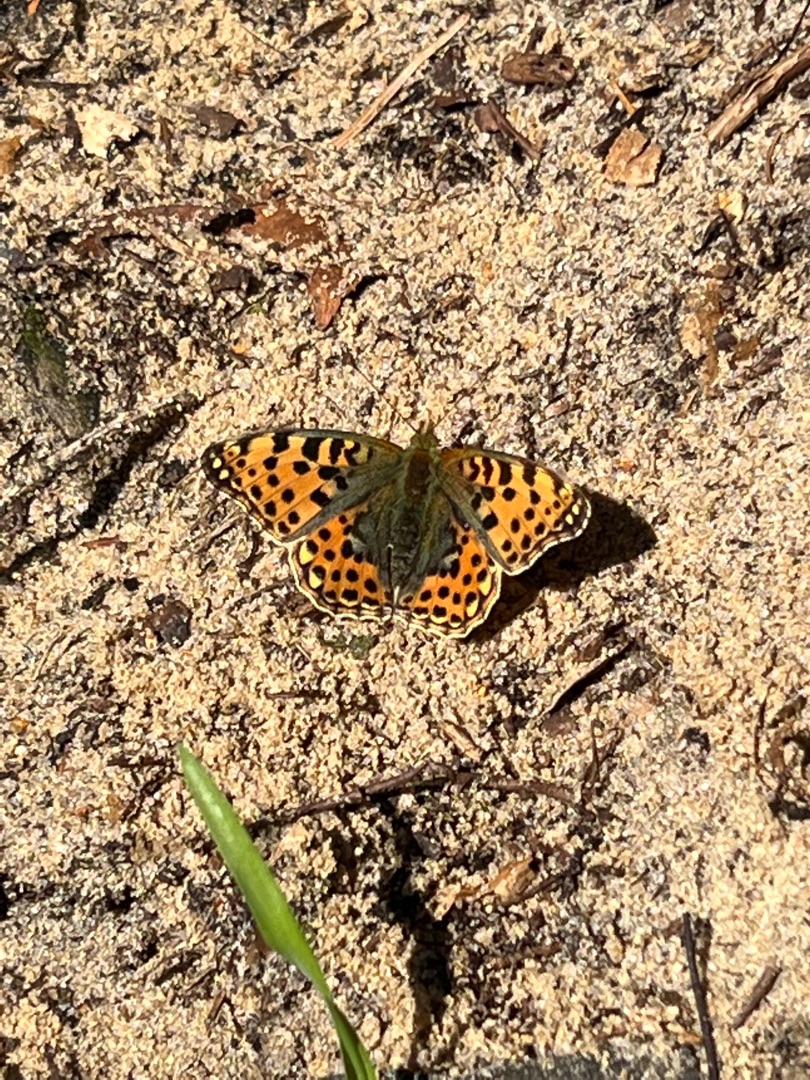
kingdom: Animalia
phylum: Arthropoda
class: Insecta
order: Lepidoptera
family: Nymphalidae
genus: Issoria
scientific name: Issoria lathonia
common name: Storplettet perlemorsommerfugl
